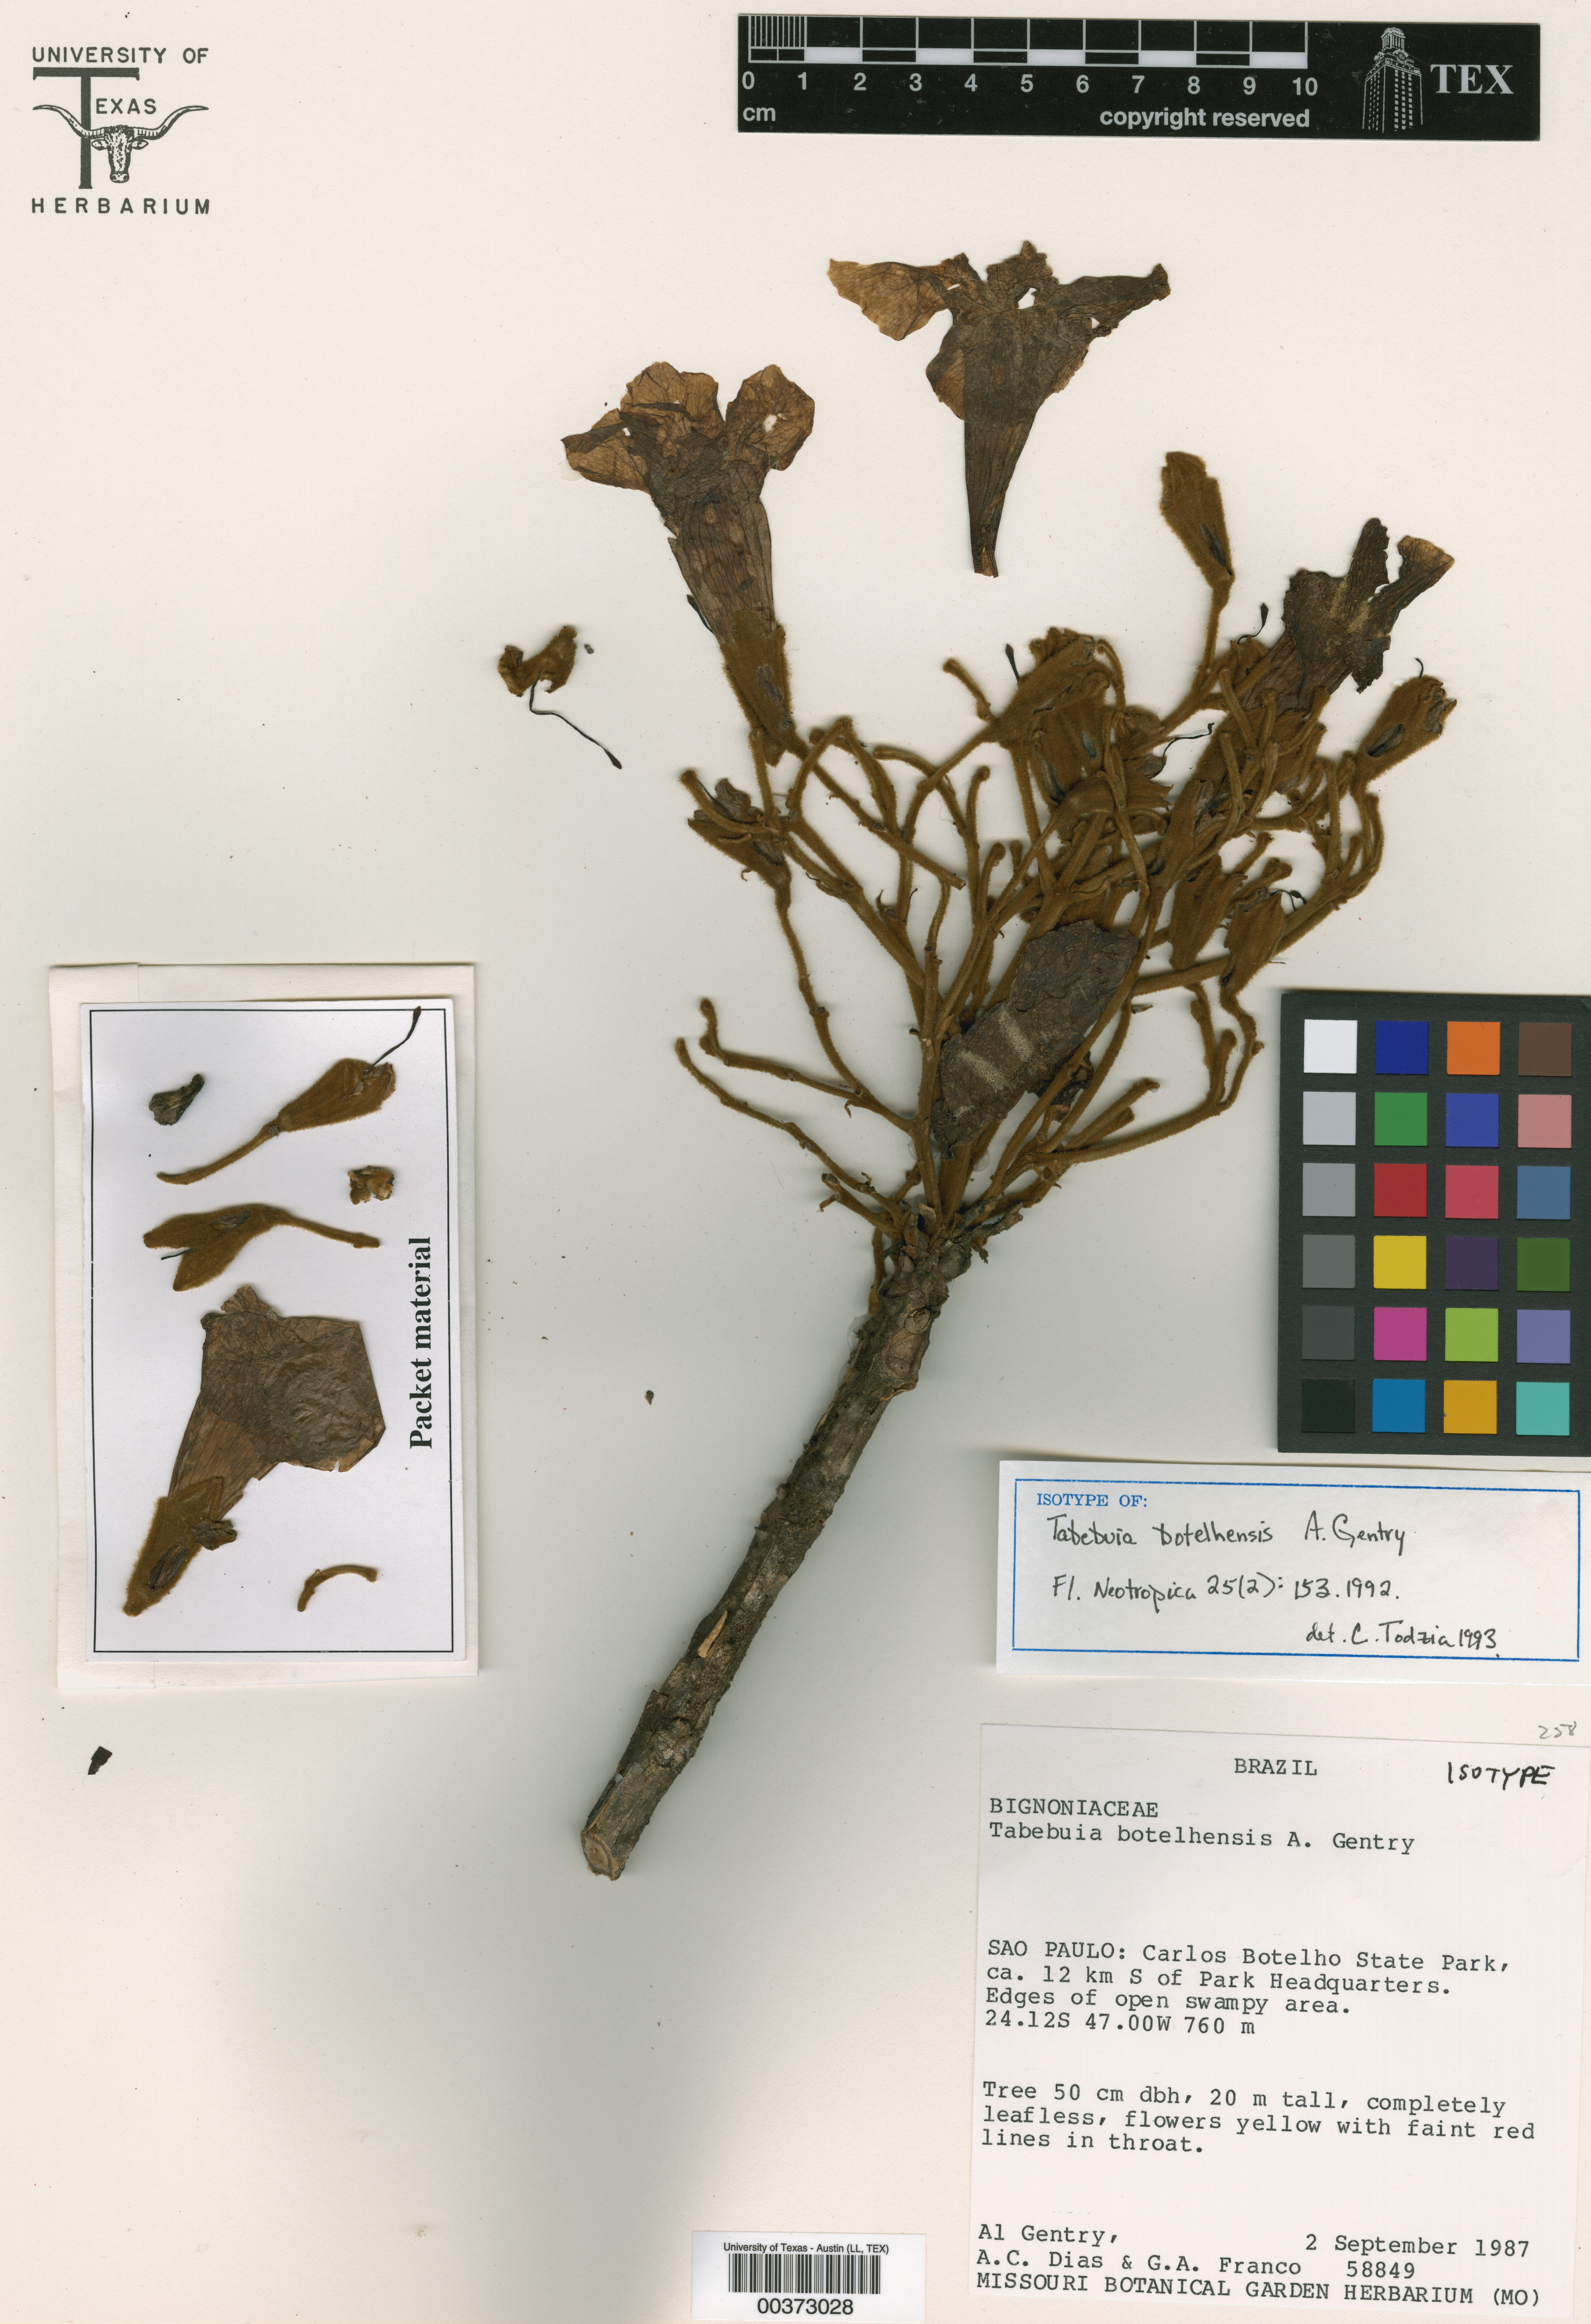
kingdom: Plantae
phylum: Tracheophyta
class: Magnoliopsida
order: Malpighiales
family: Hypericaceae
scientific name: Hypericaceae
